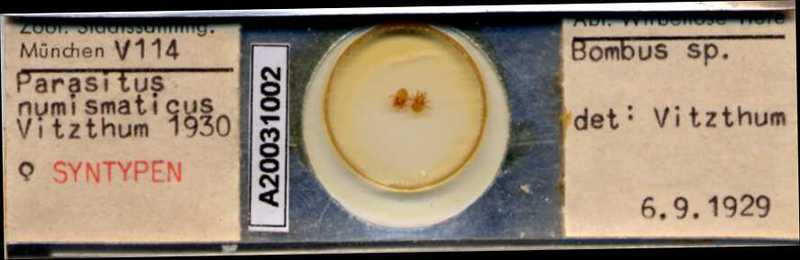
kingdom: Animalia
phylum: Arthropoda
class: Arachnida
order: Mesostigmata
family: Parasitidae
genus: Parasitus
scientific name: Parasitus
